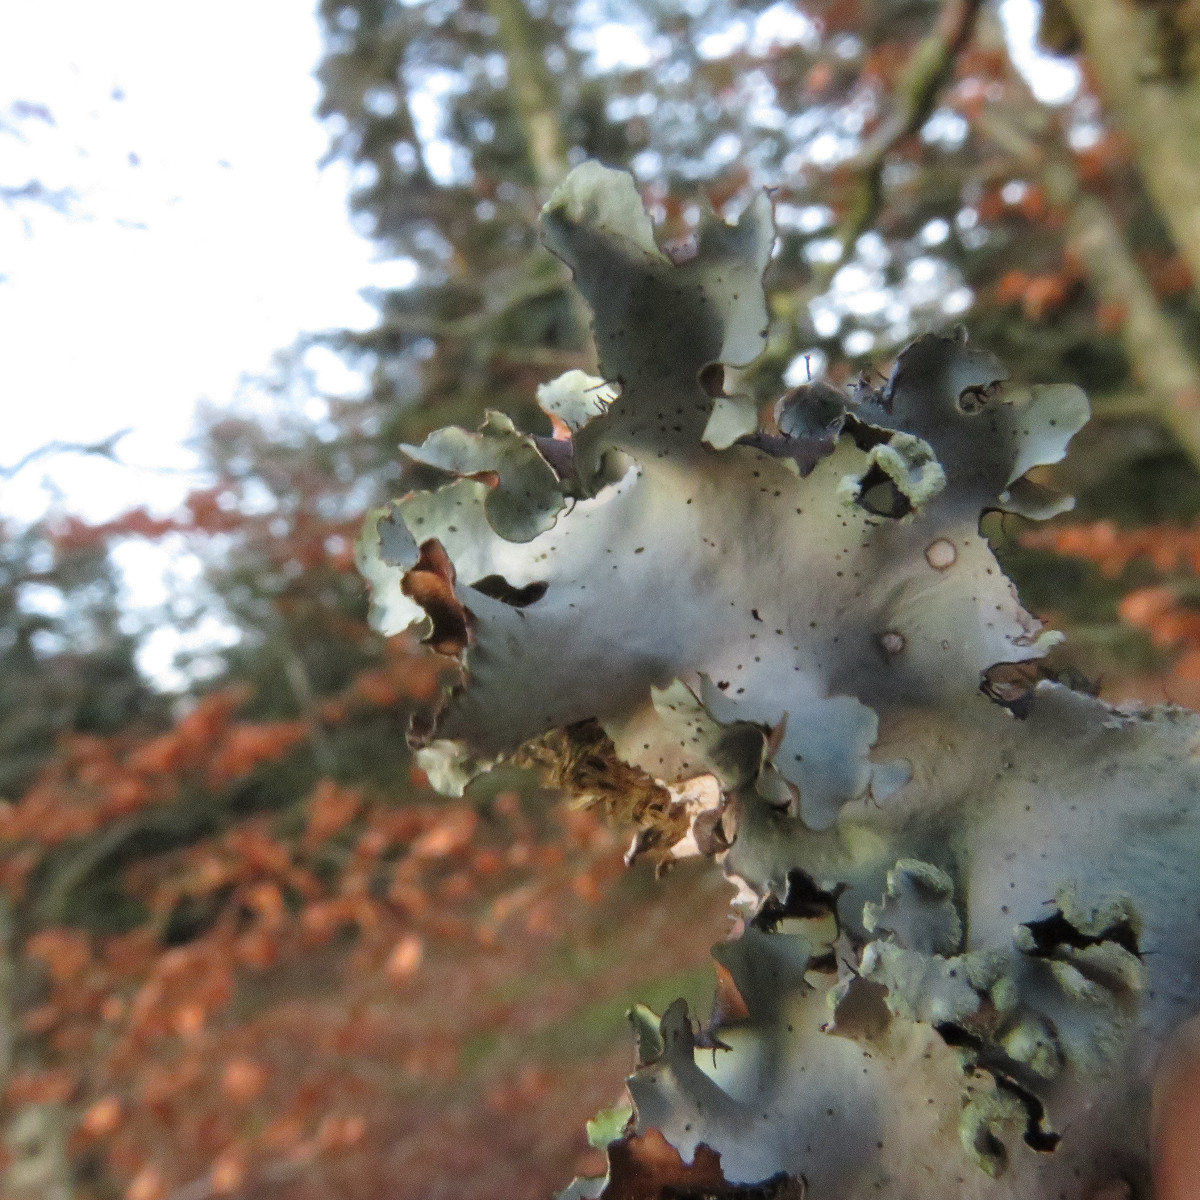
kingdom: Fungi
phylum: Ascomycota
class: Lecanoromycetes
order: Lecanorales
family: Parmeliaceae
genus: Parmotrema
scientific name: Parmotrema perlatum
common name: trådet skållav
